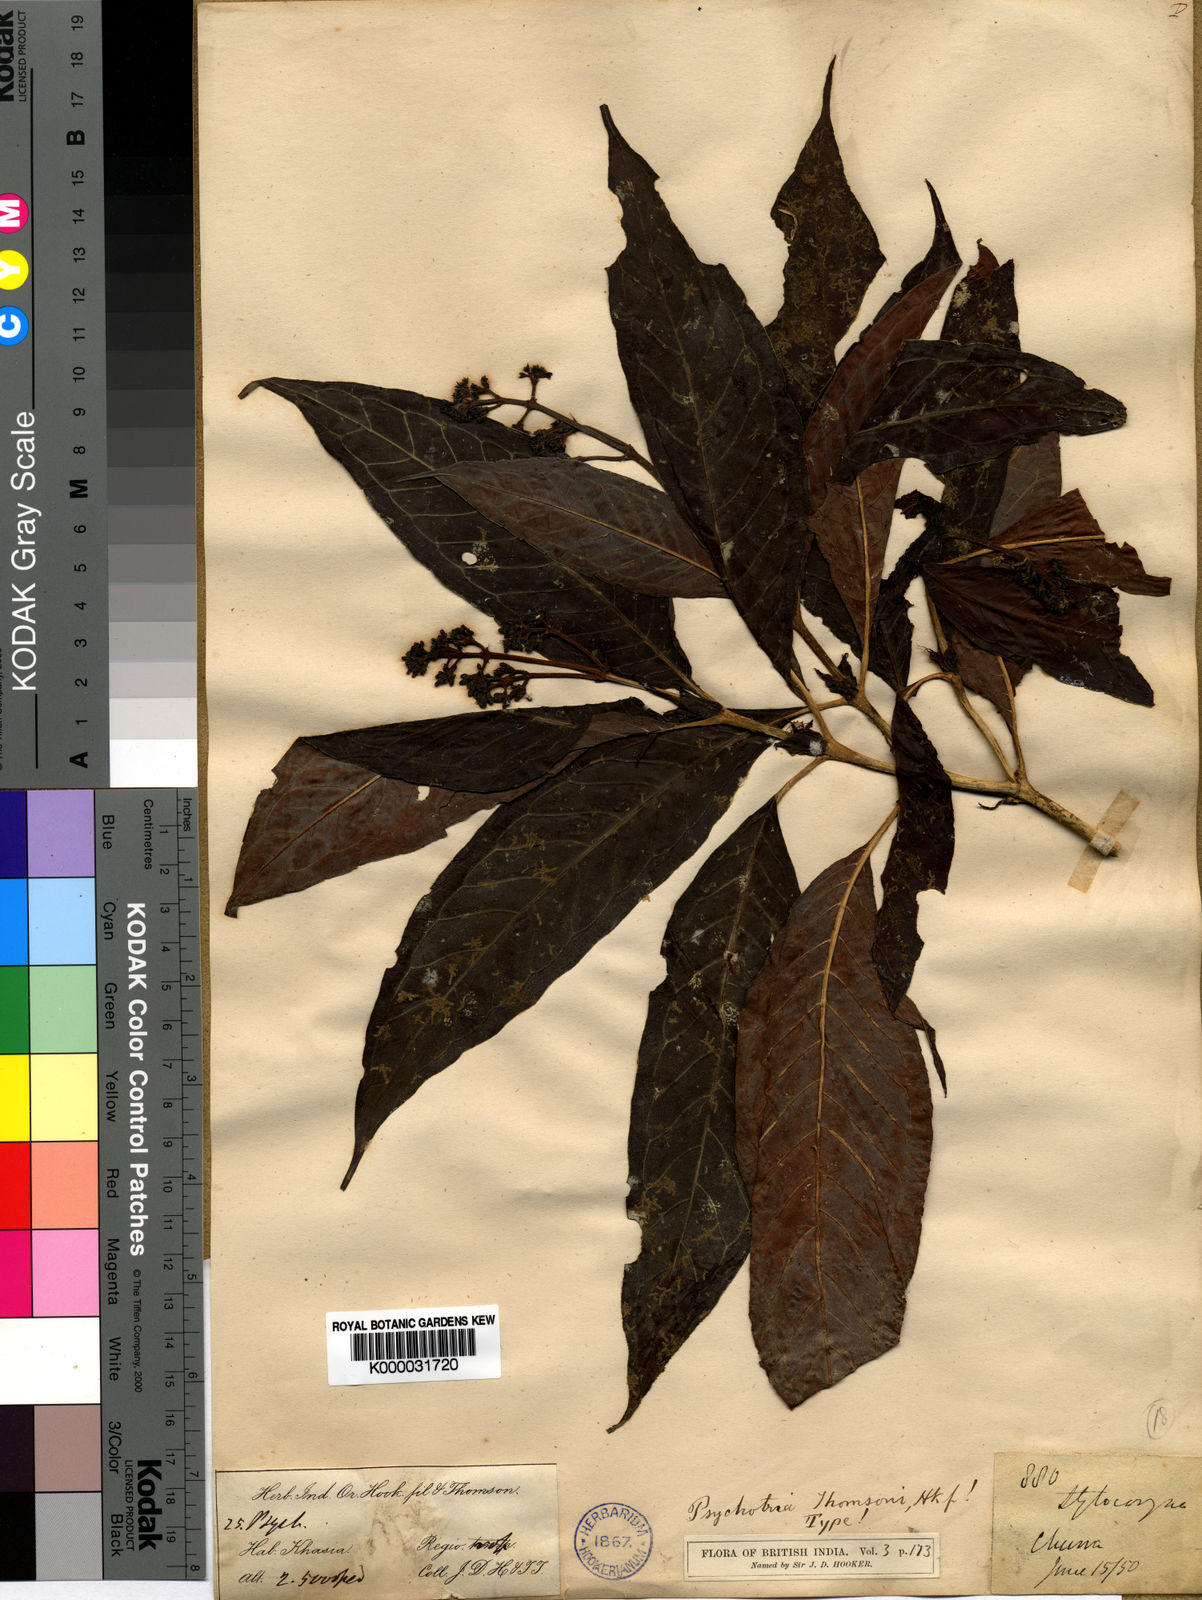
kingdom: Plantae
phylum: Tracheophyta
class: Magnoliopsida
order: Gentianales
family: Rubiaceae
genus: Psychotria
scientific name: Psychotria thomsonii
